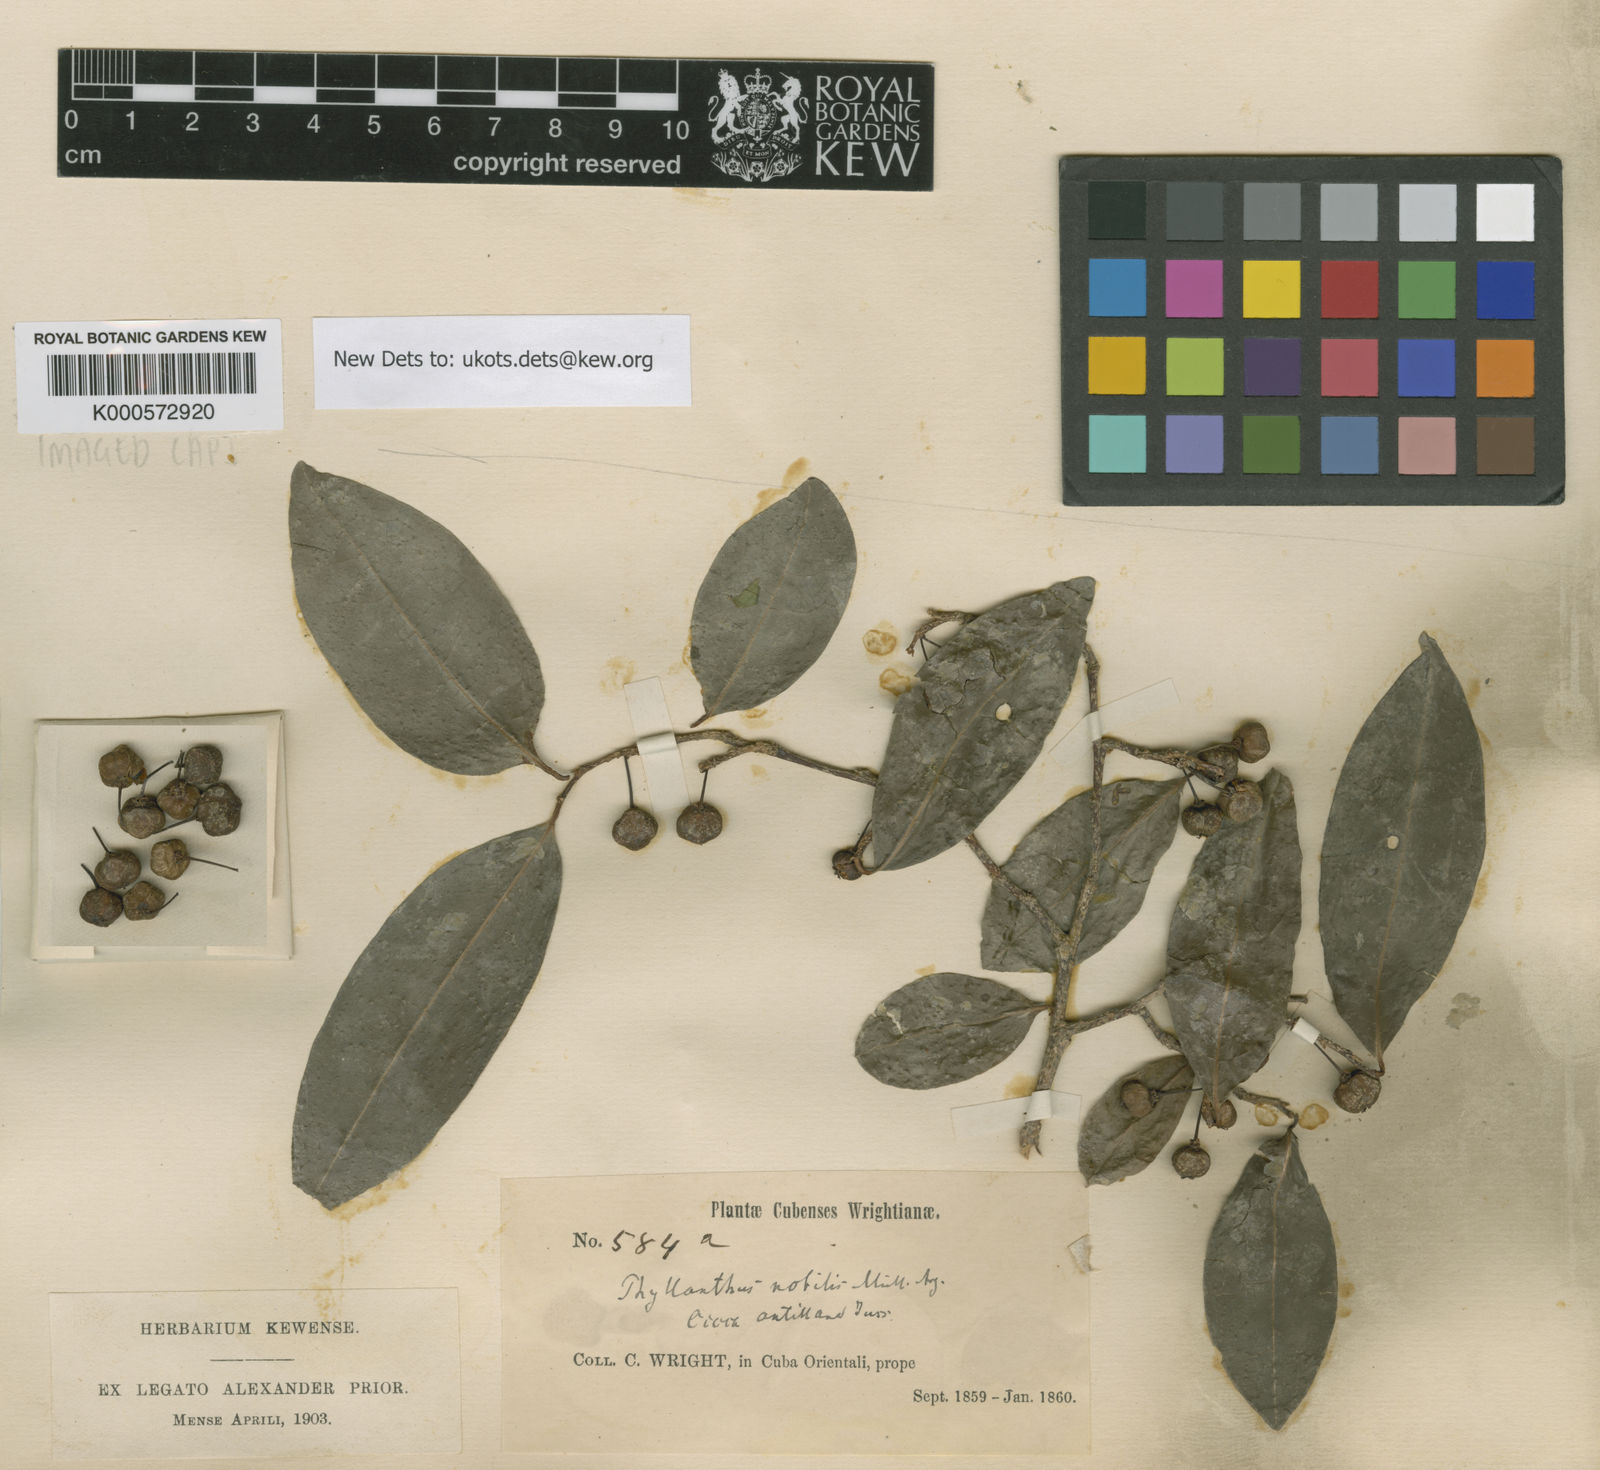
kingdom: Plantae
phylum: Tracheophyta
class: Magnoliopsida
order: Malpighiales
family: Phyllanthaceae
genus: Margaritaria
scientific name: Margaritaria nobilis
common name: Goose berry
